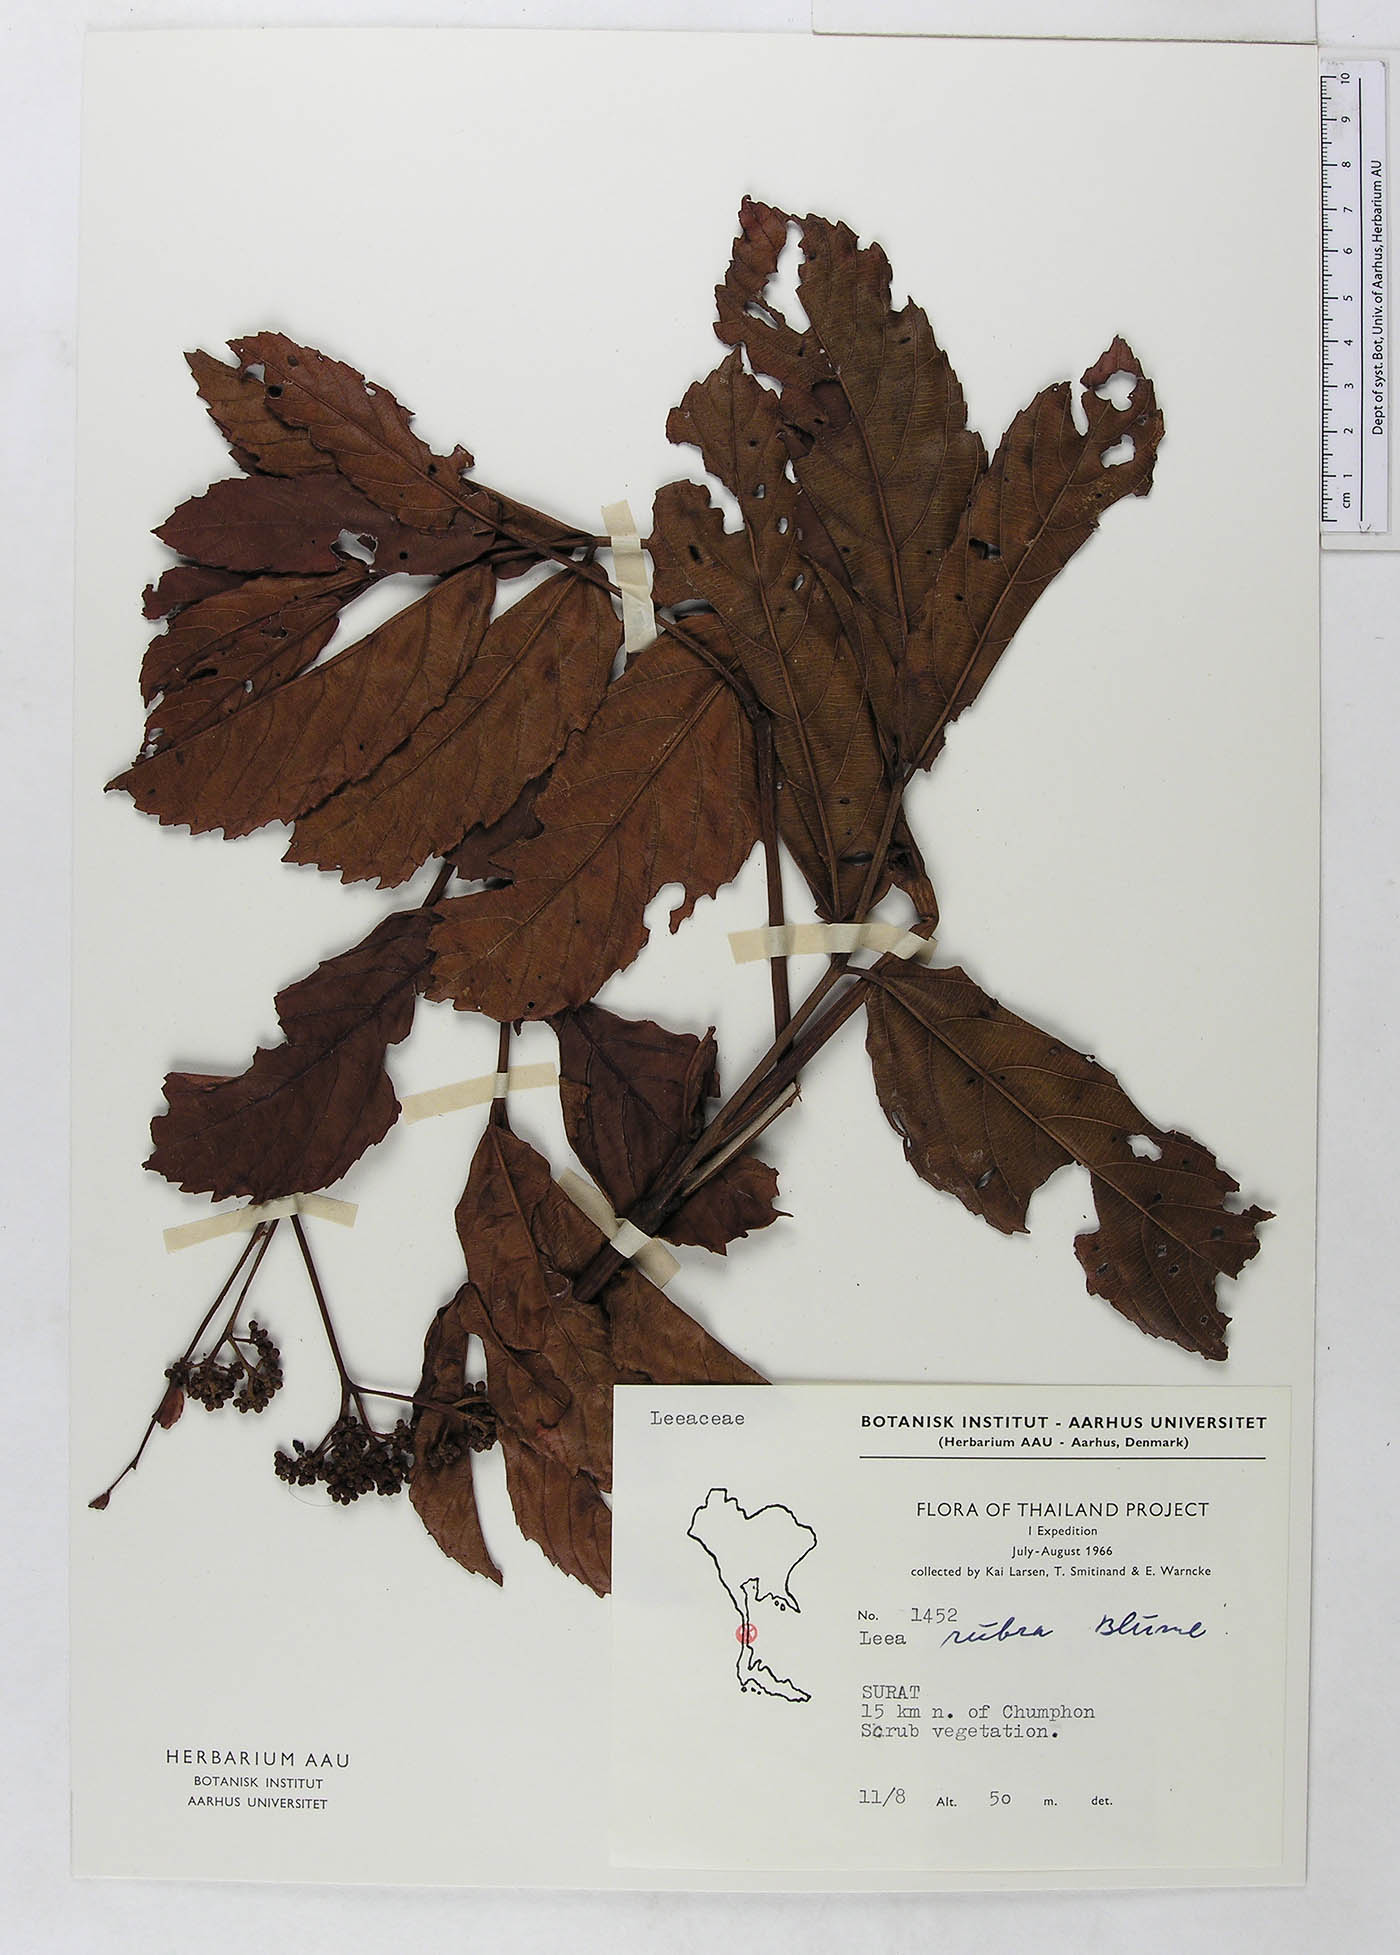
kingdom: Plantae
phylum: Tracheophyta
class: Magnoliopsida
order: Vitales
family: Vitaceae
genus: Leea
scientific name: Leea guineensis
